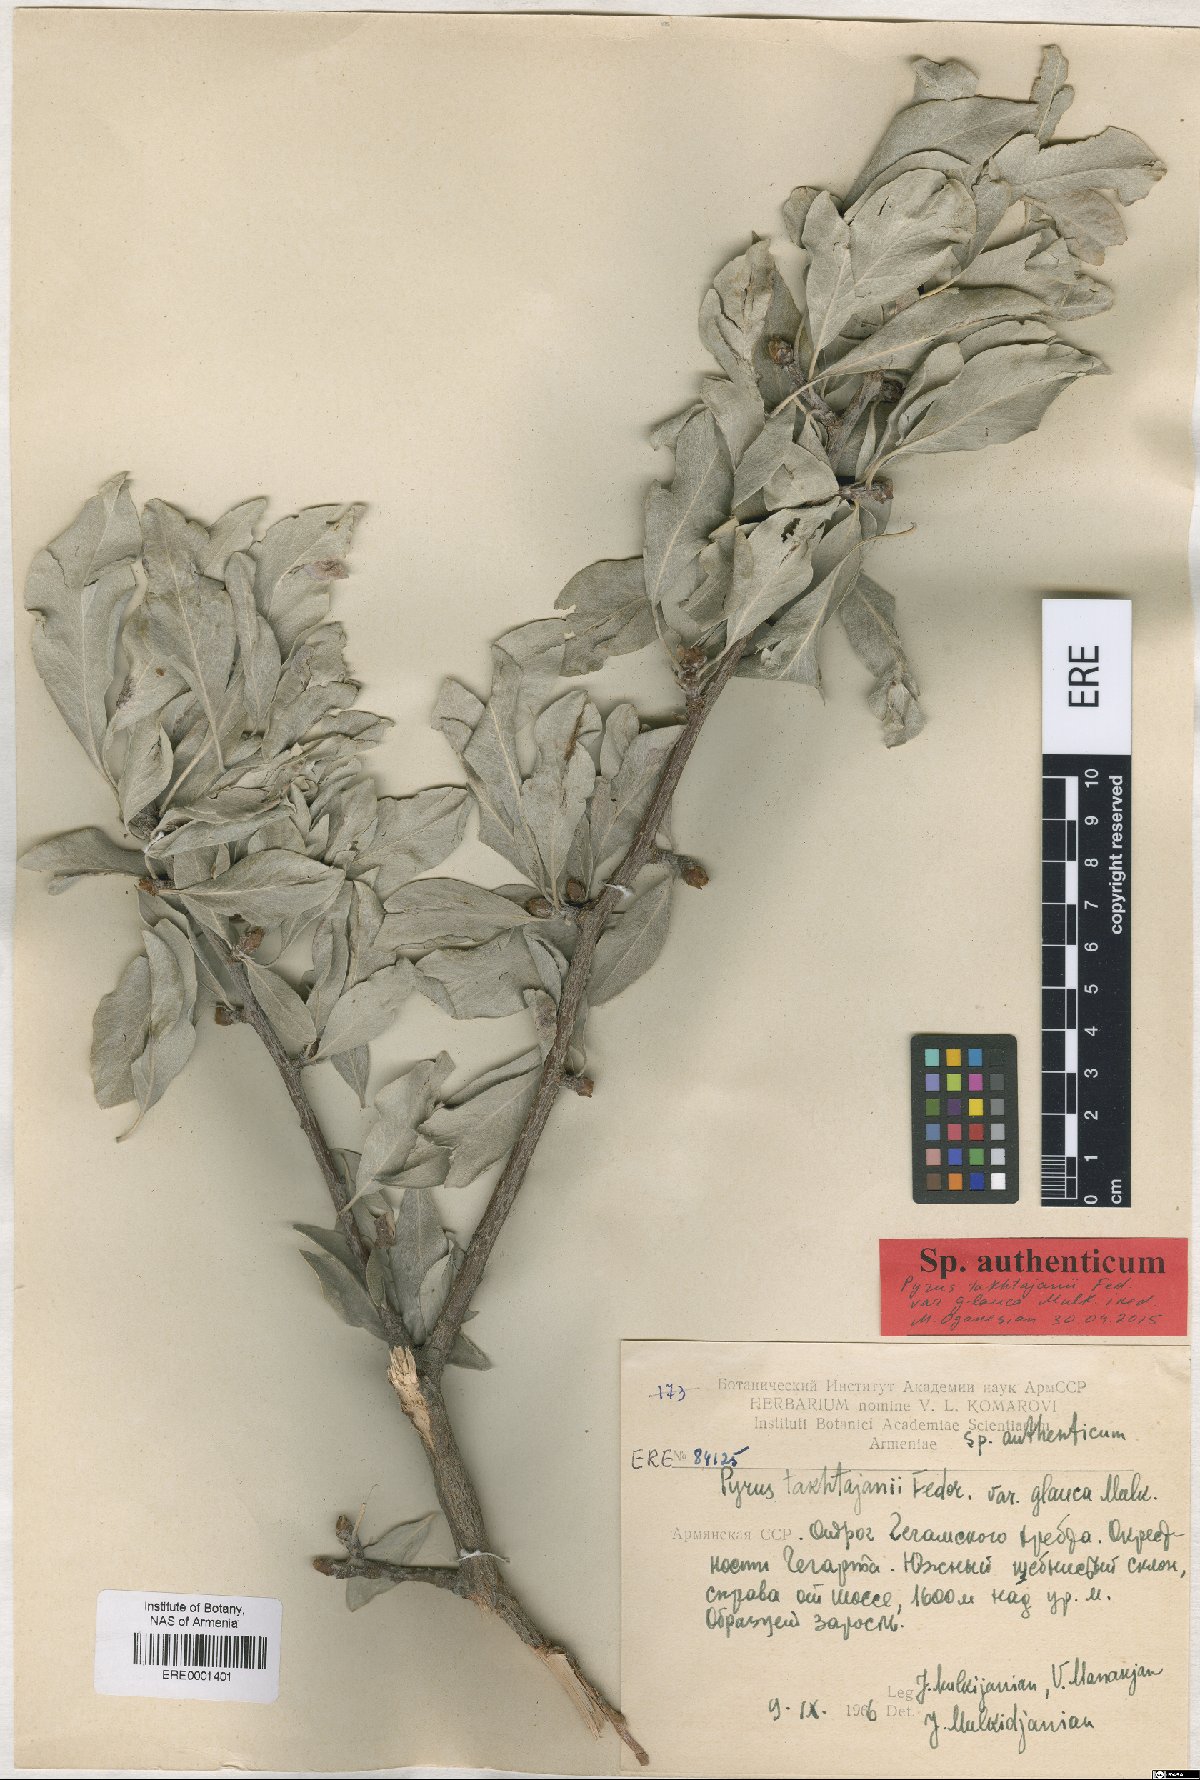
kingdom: Plantae
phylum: Tracheophyta
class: Magnoliopsida
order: Rosales
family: Rosaceae
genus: Pyrus
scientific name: Pyrus takhtadzhianii
